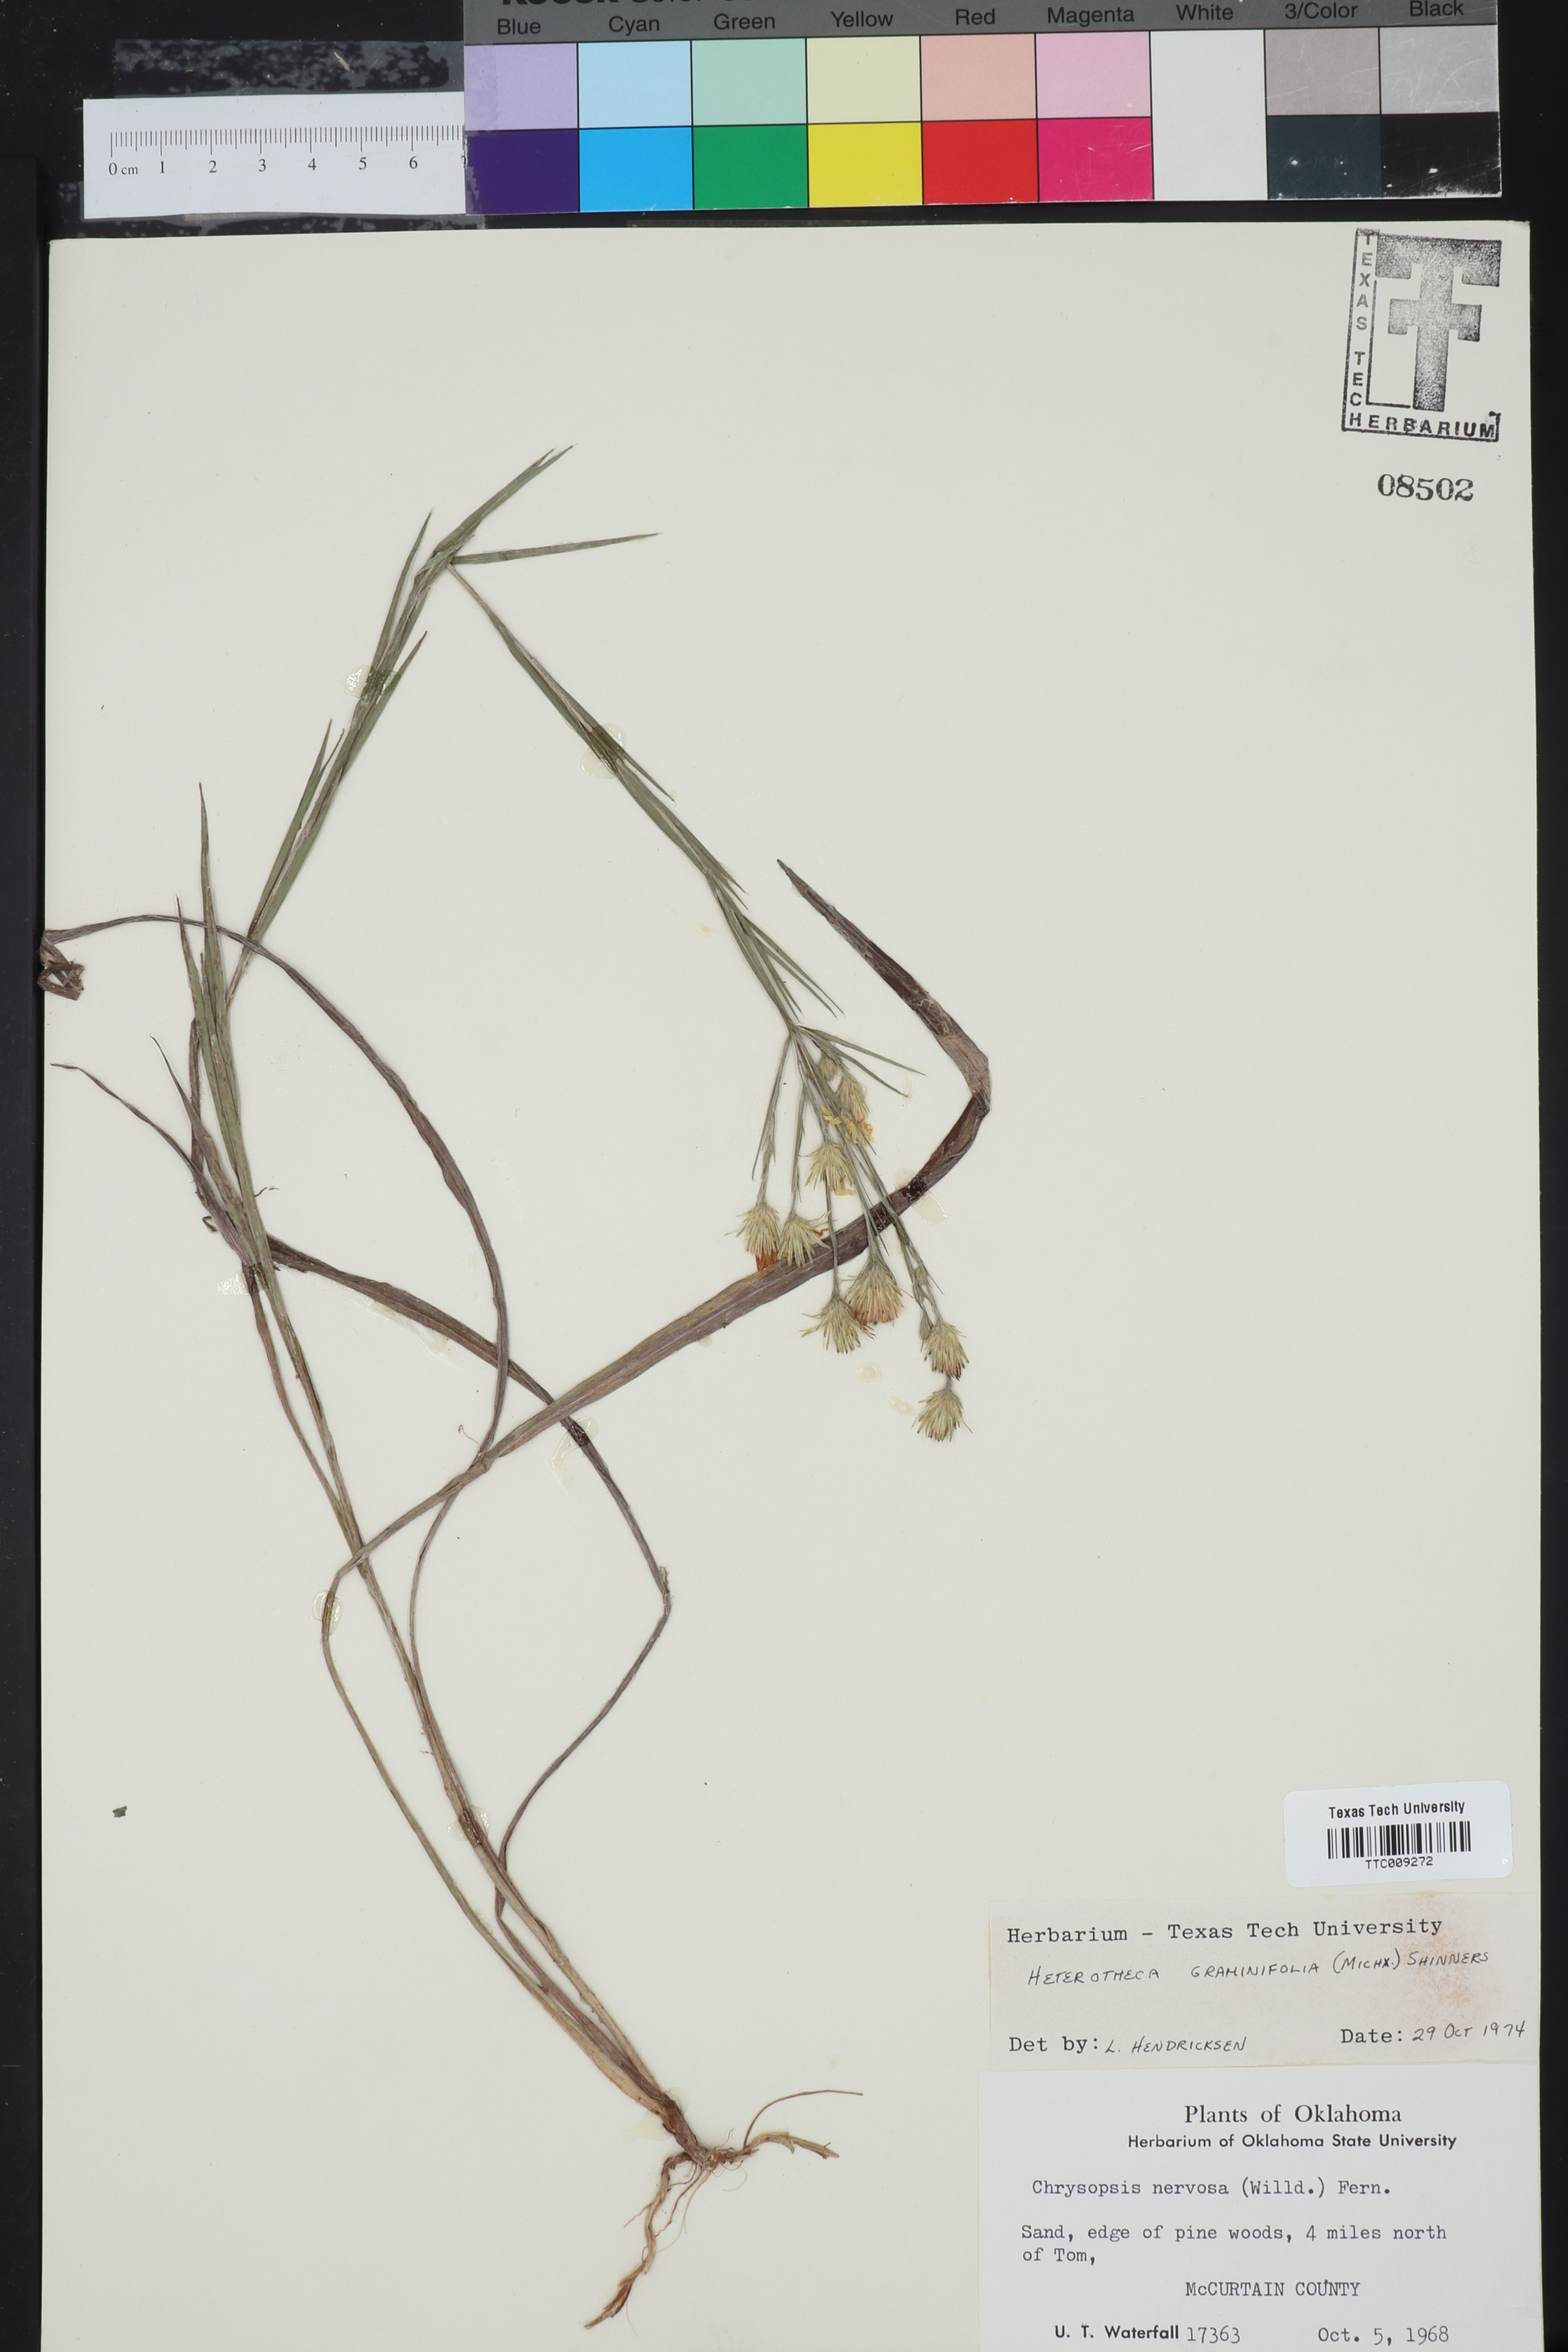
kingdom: Plantae
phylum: Tracheophyta
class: Magnoliopsida
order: Asterales
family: Asteraceae
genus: Pityopsis
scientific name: Pityopsis graminifolia
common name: Grass-leaf golden-aster
